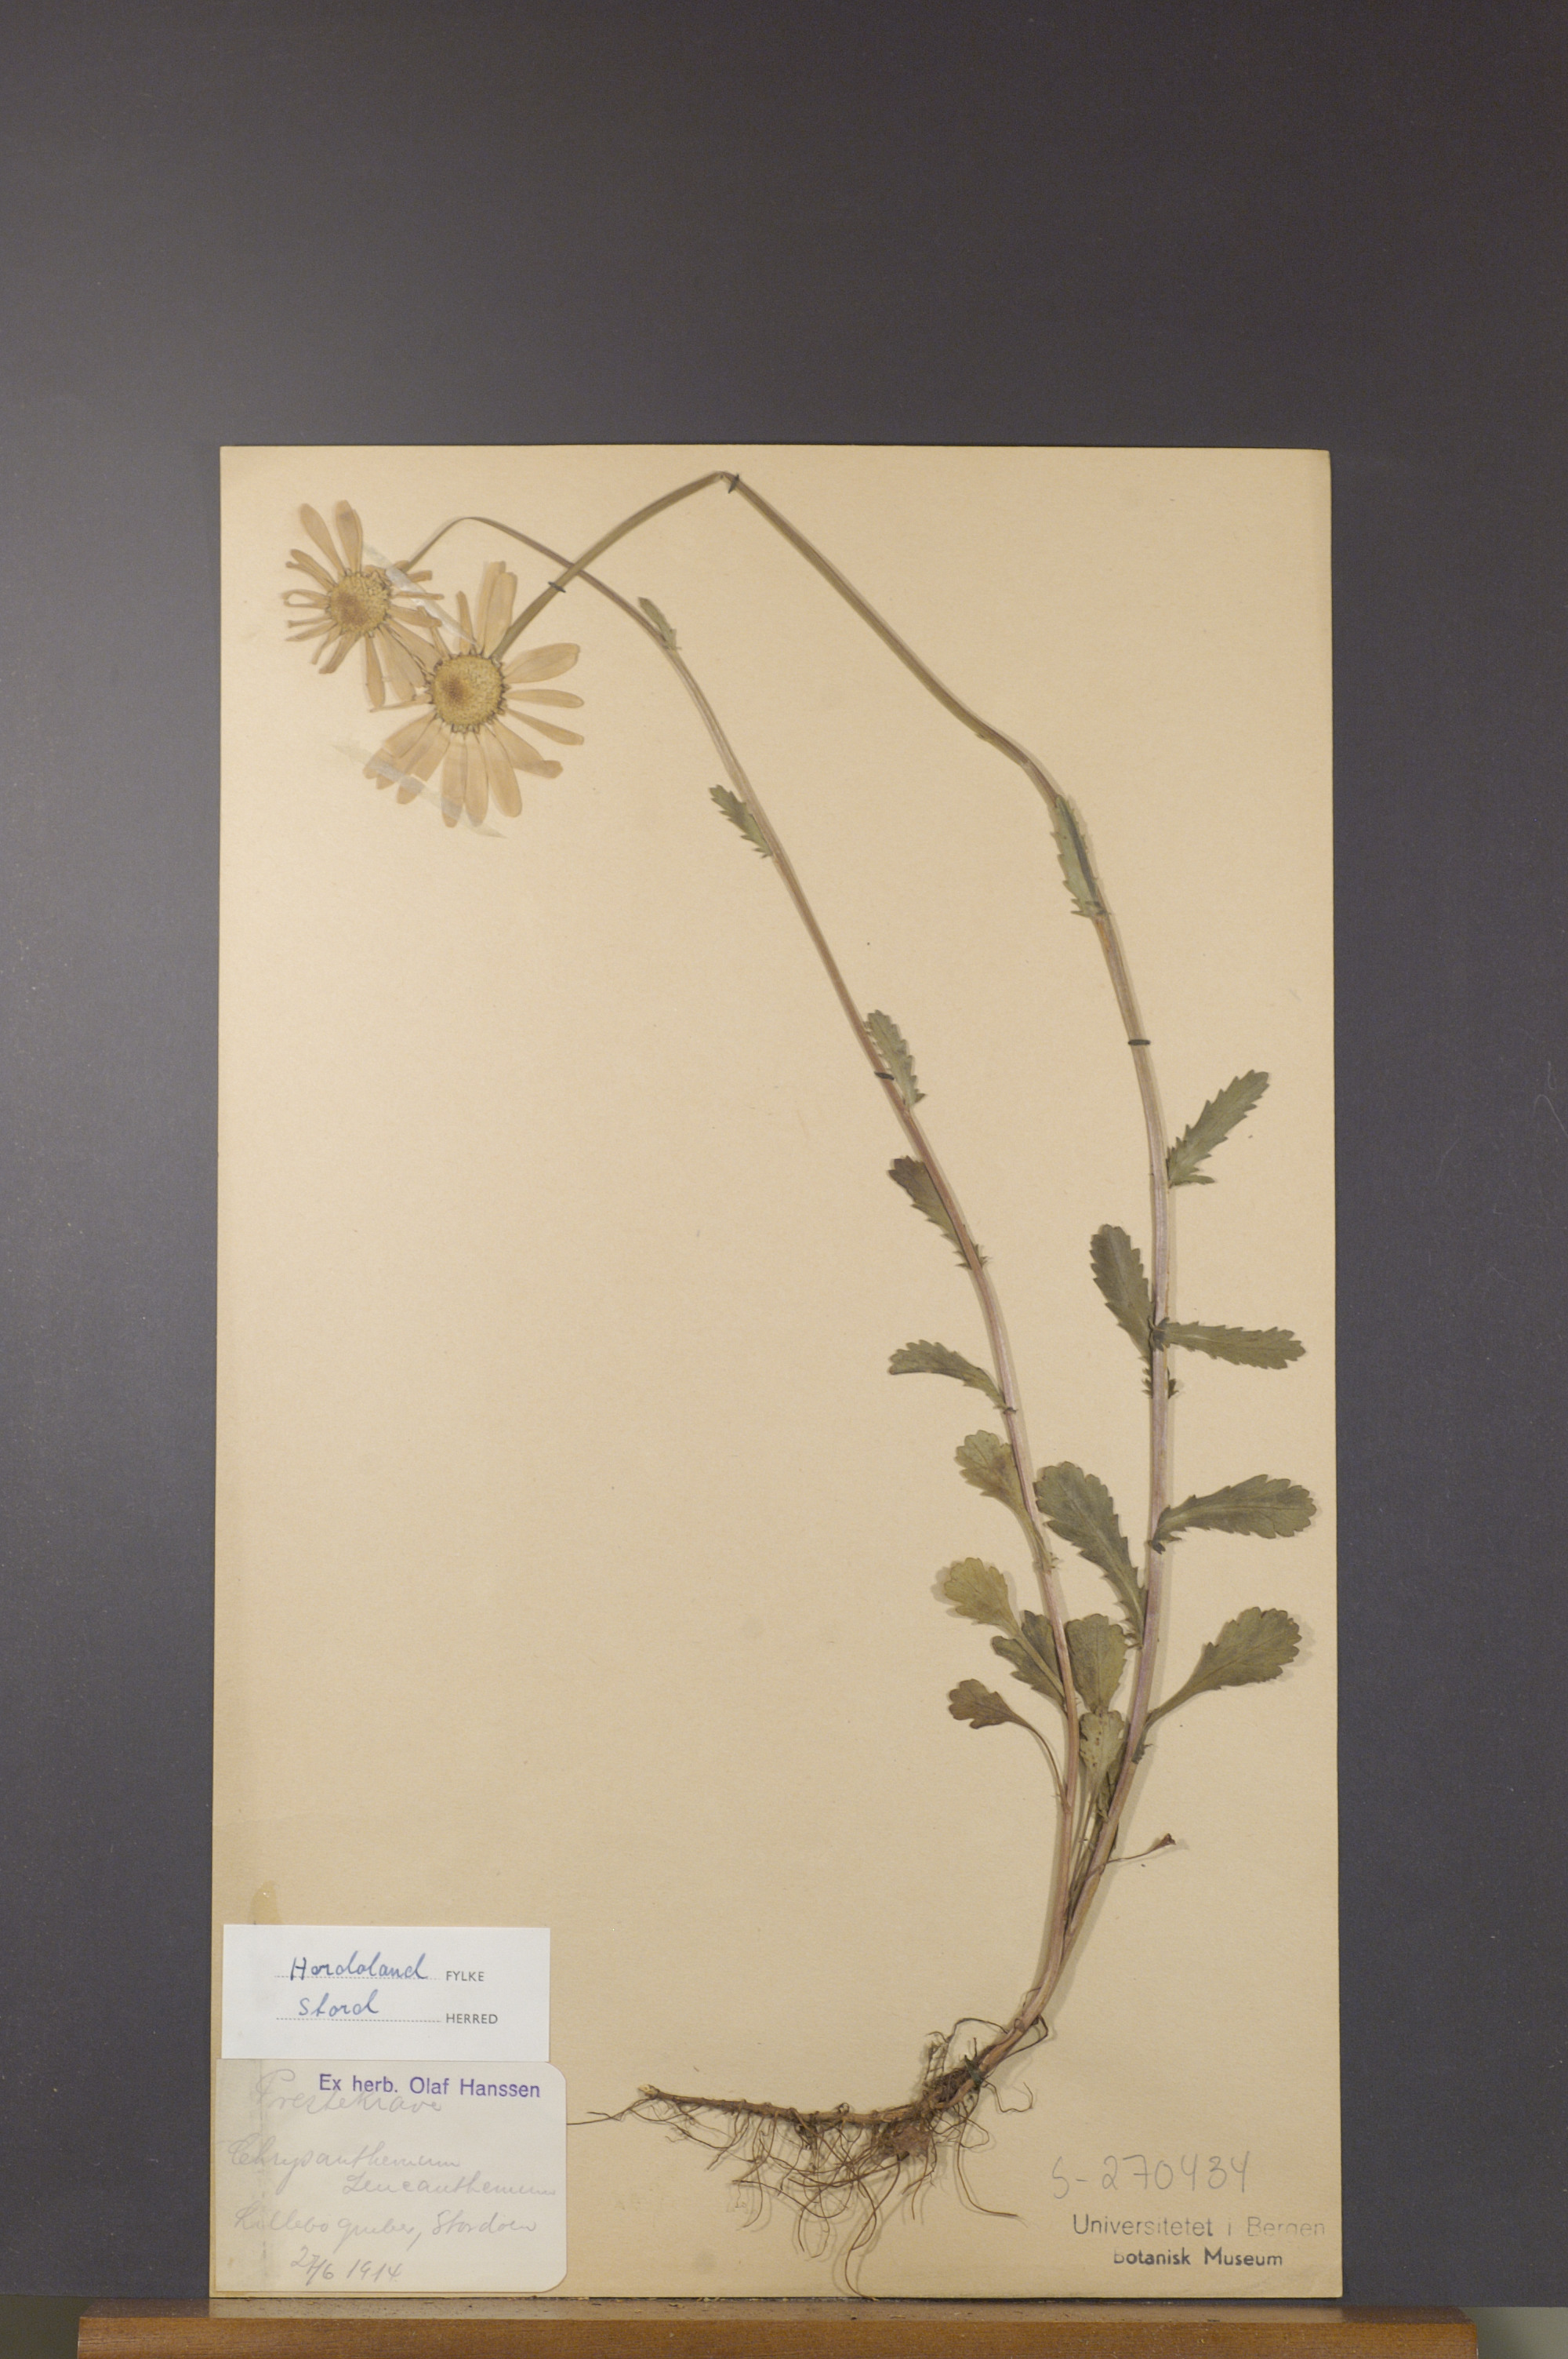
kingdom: Plantae
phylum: Tracheophyta
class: Magnoliopsida
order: Asterales
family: Asteraceae
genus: Leucanthemum
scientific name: Leucanthemum vulgare
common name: Oxeye daisy
